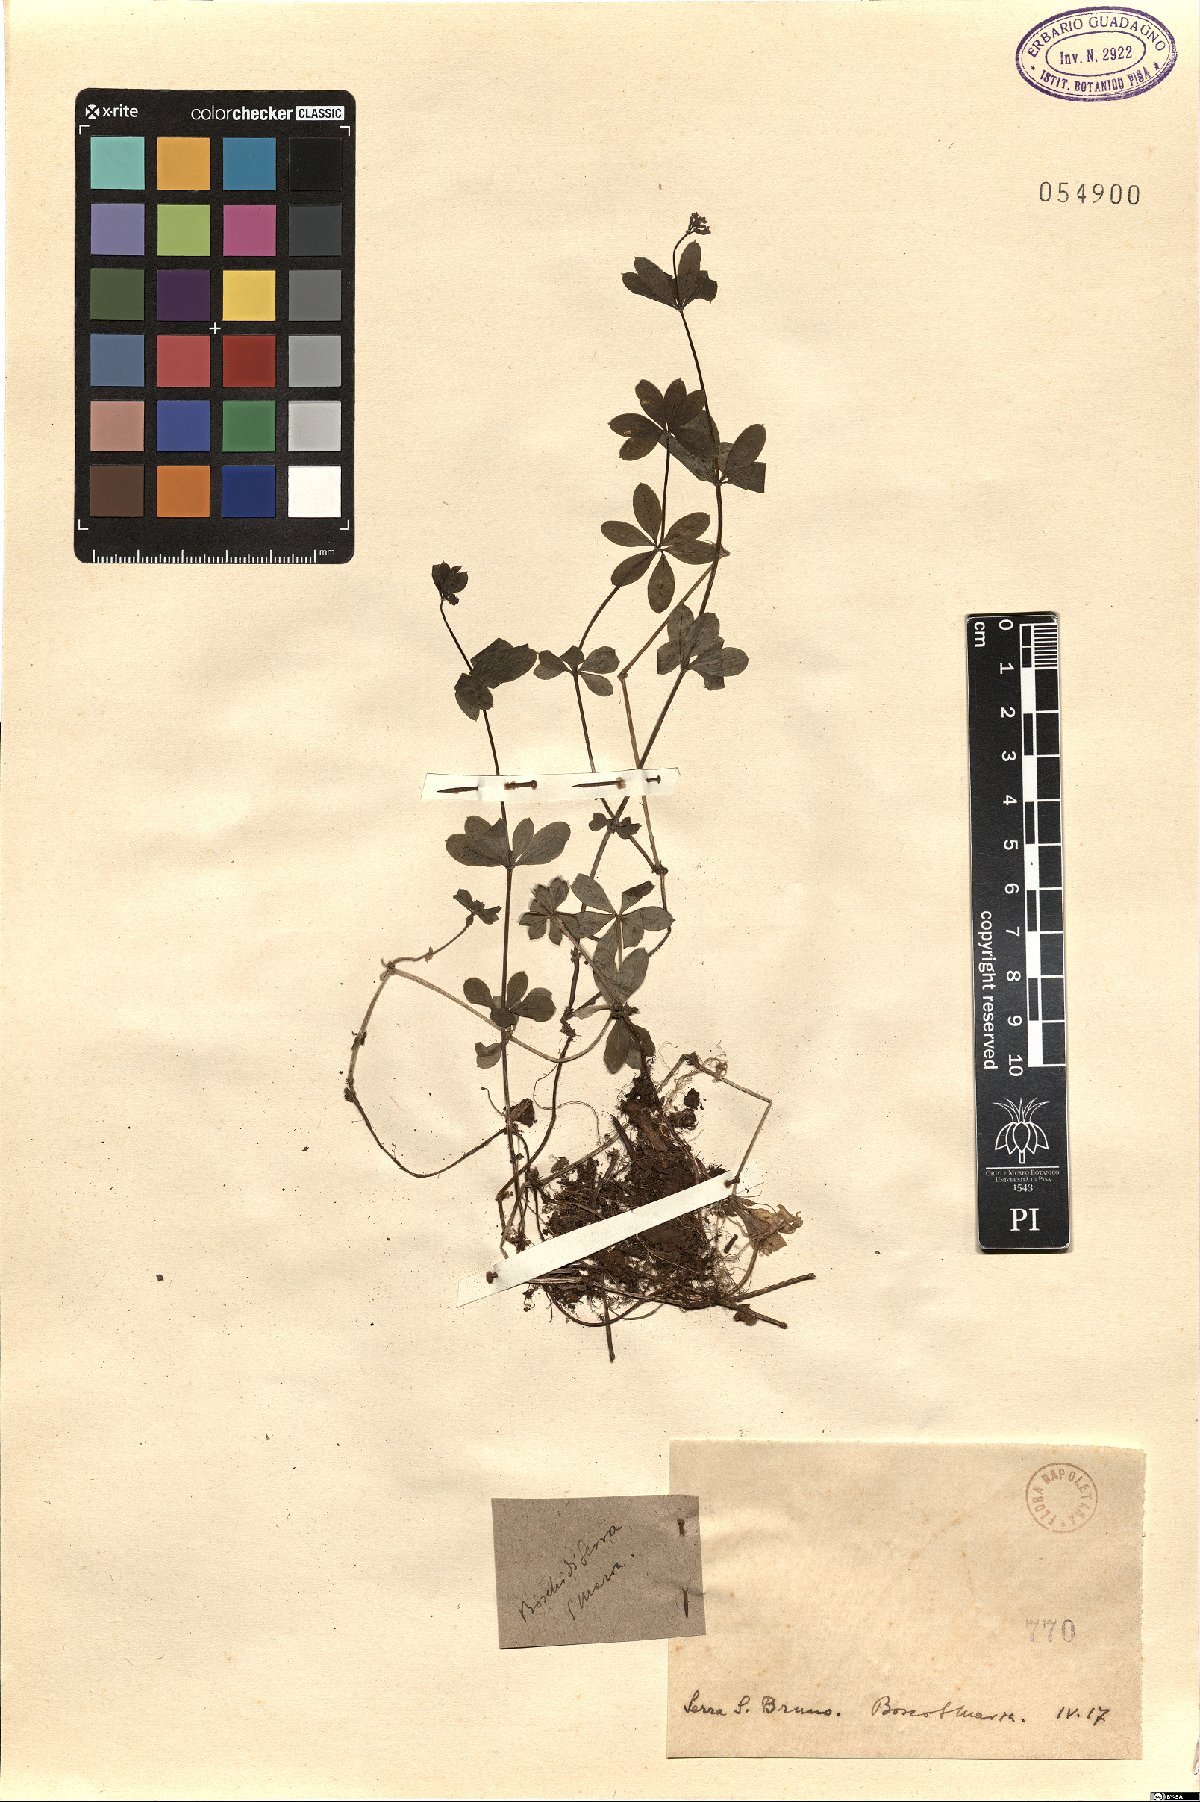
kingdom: Plantae
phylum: Tracheophyta
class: Magnoliopsida
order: Gentianales
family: Rubiaceae
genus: Asperula
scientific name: Asperula
